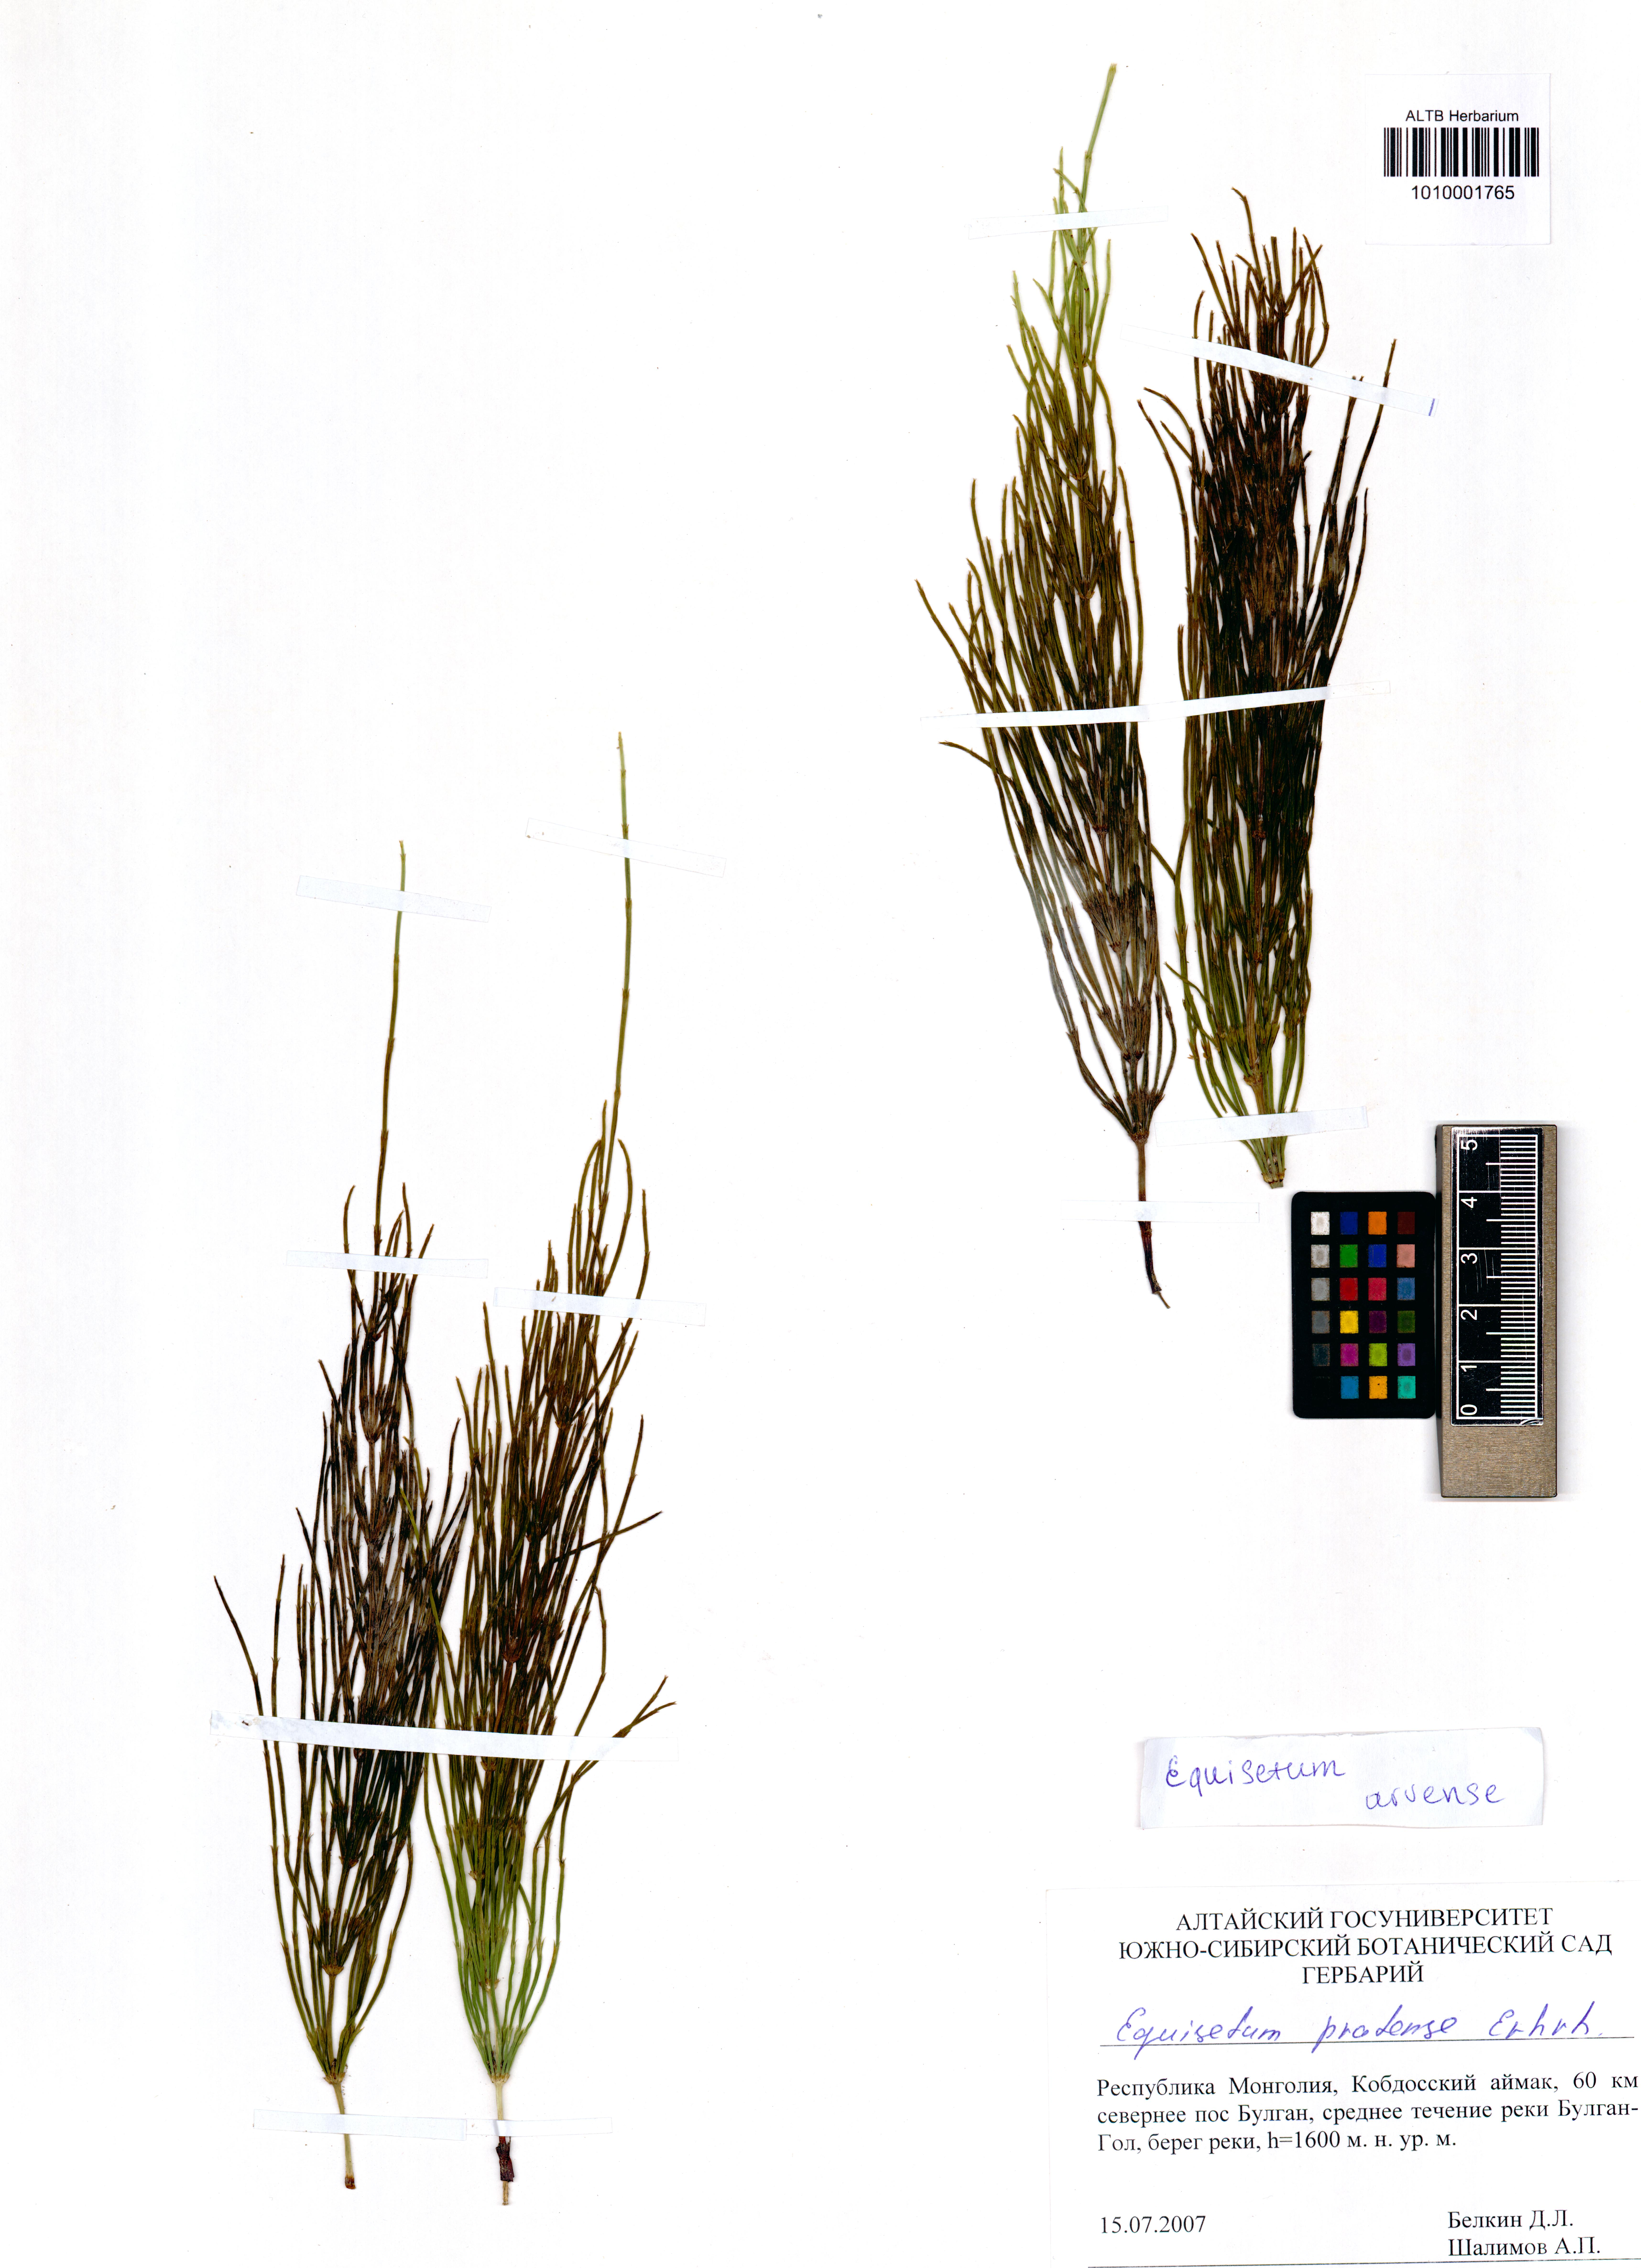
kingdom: Plantae
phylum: Tracheophyta
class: Polypodiopsida
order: Equisetales
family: Equisetaceae
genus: Equisetum
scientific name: Equisetum arvense
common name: Field horsetail
